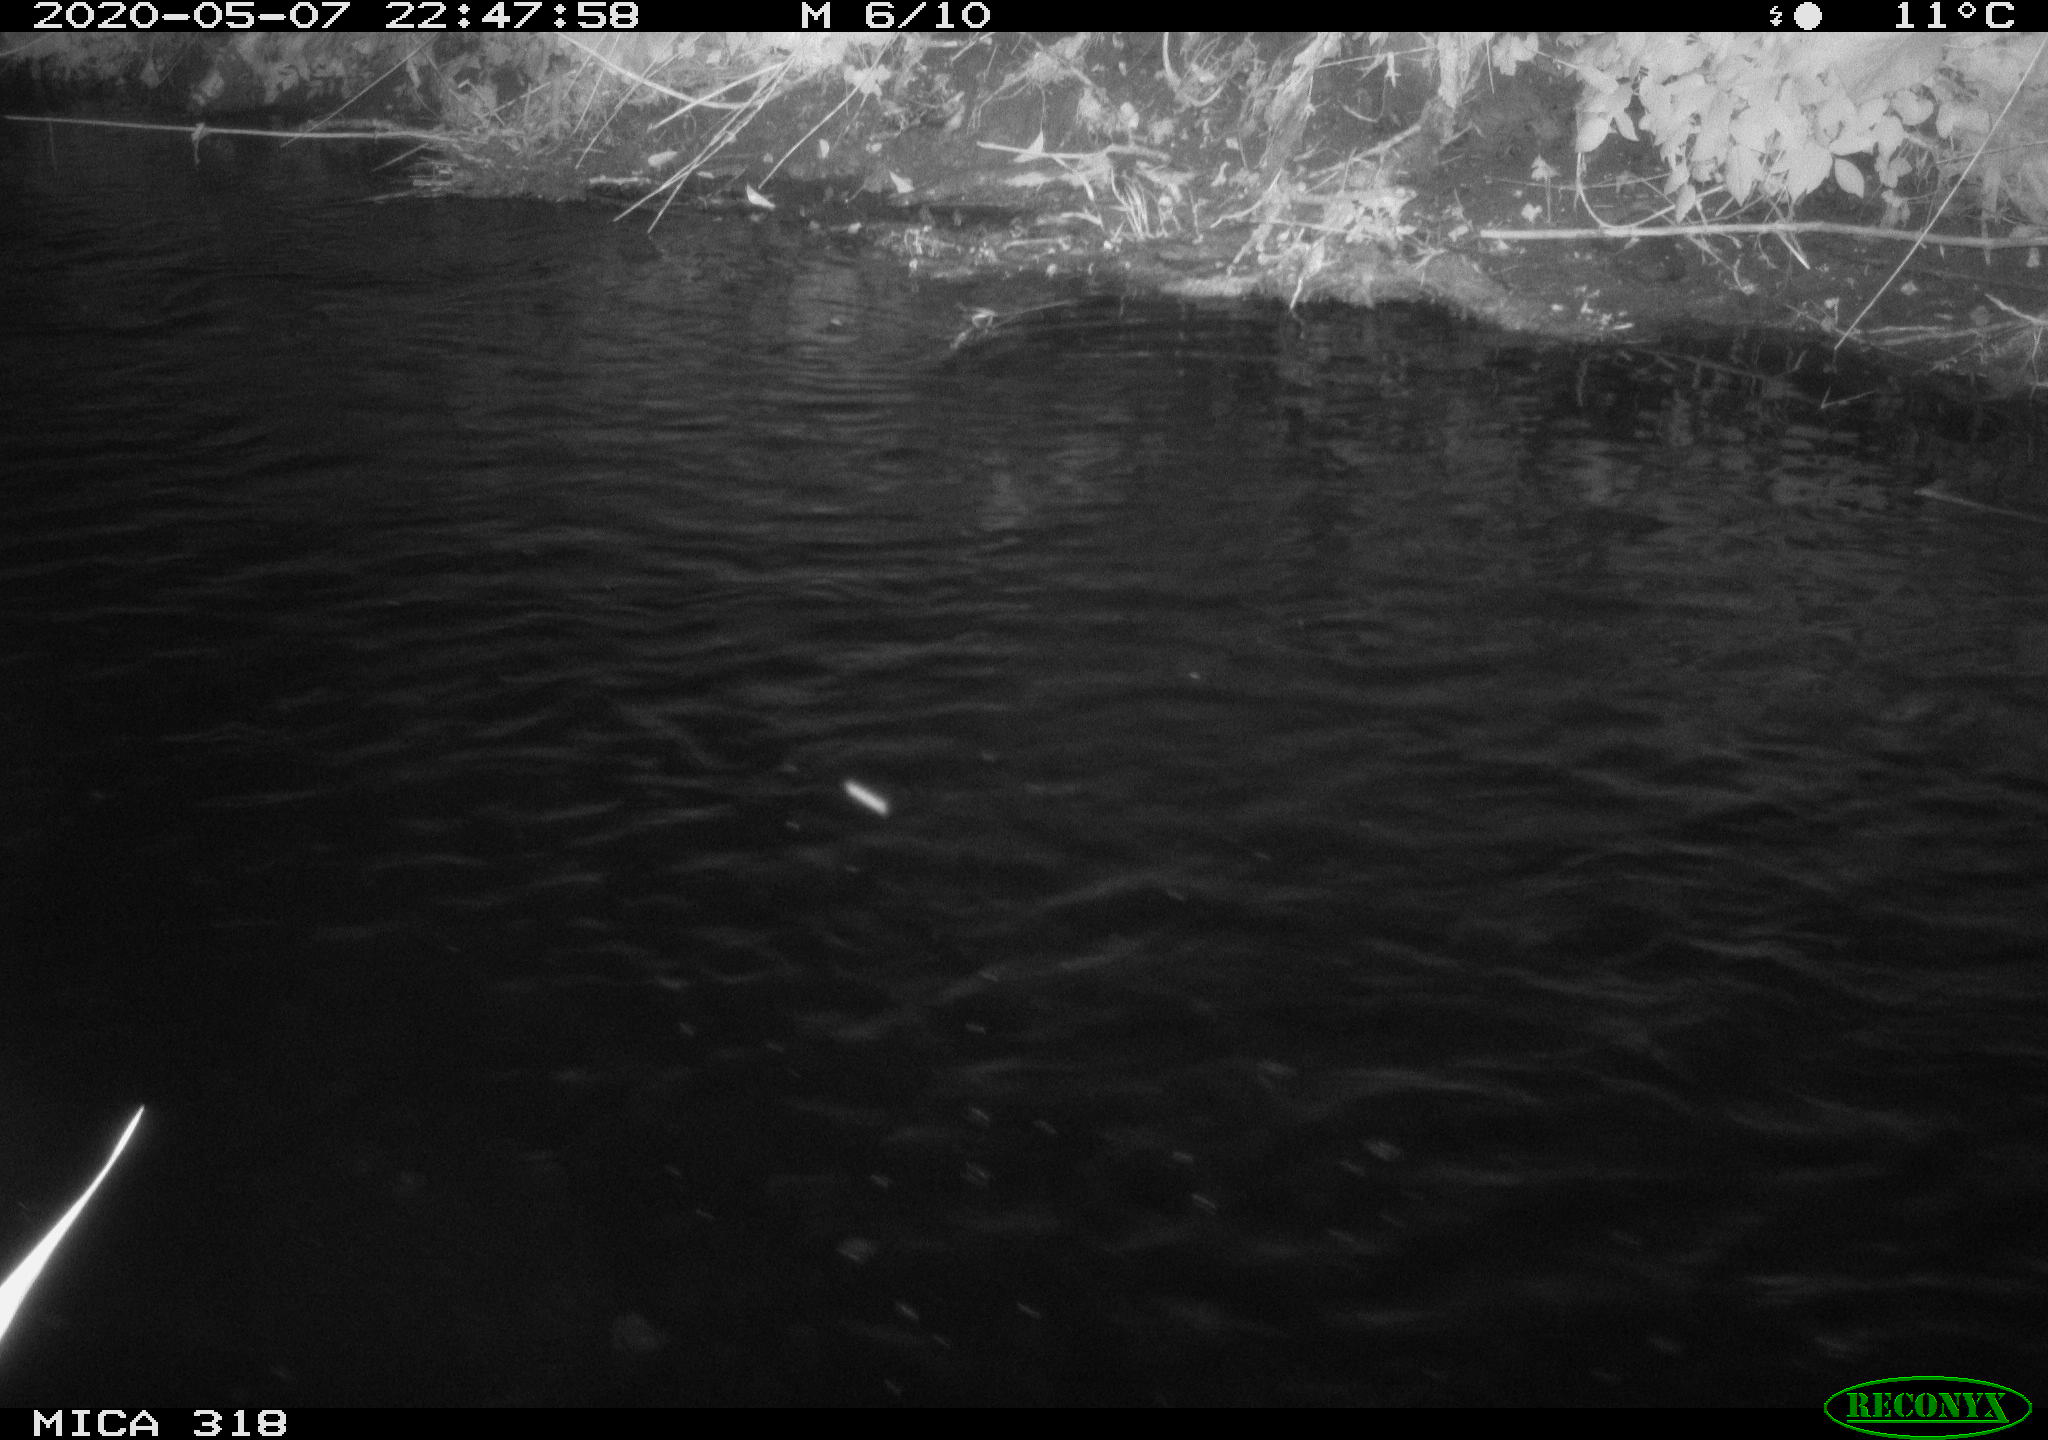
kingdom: Animalia
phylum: Chordata
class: Aves
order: Pelecaniformes
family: Ardeidae
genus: Ardea
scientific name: Ardea cinerea
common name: Grey heron
